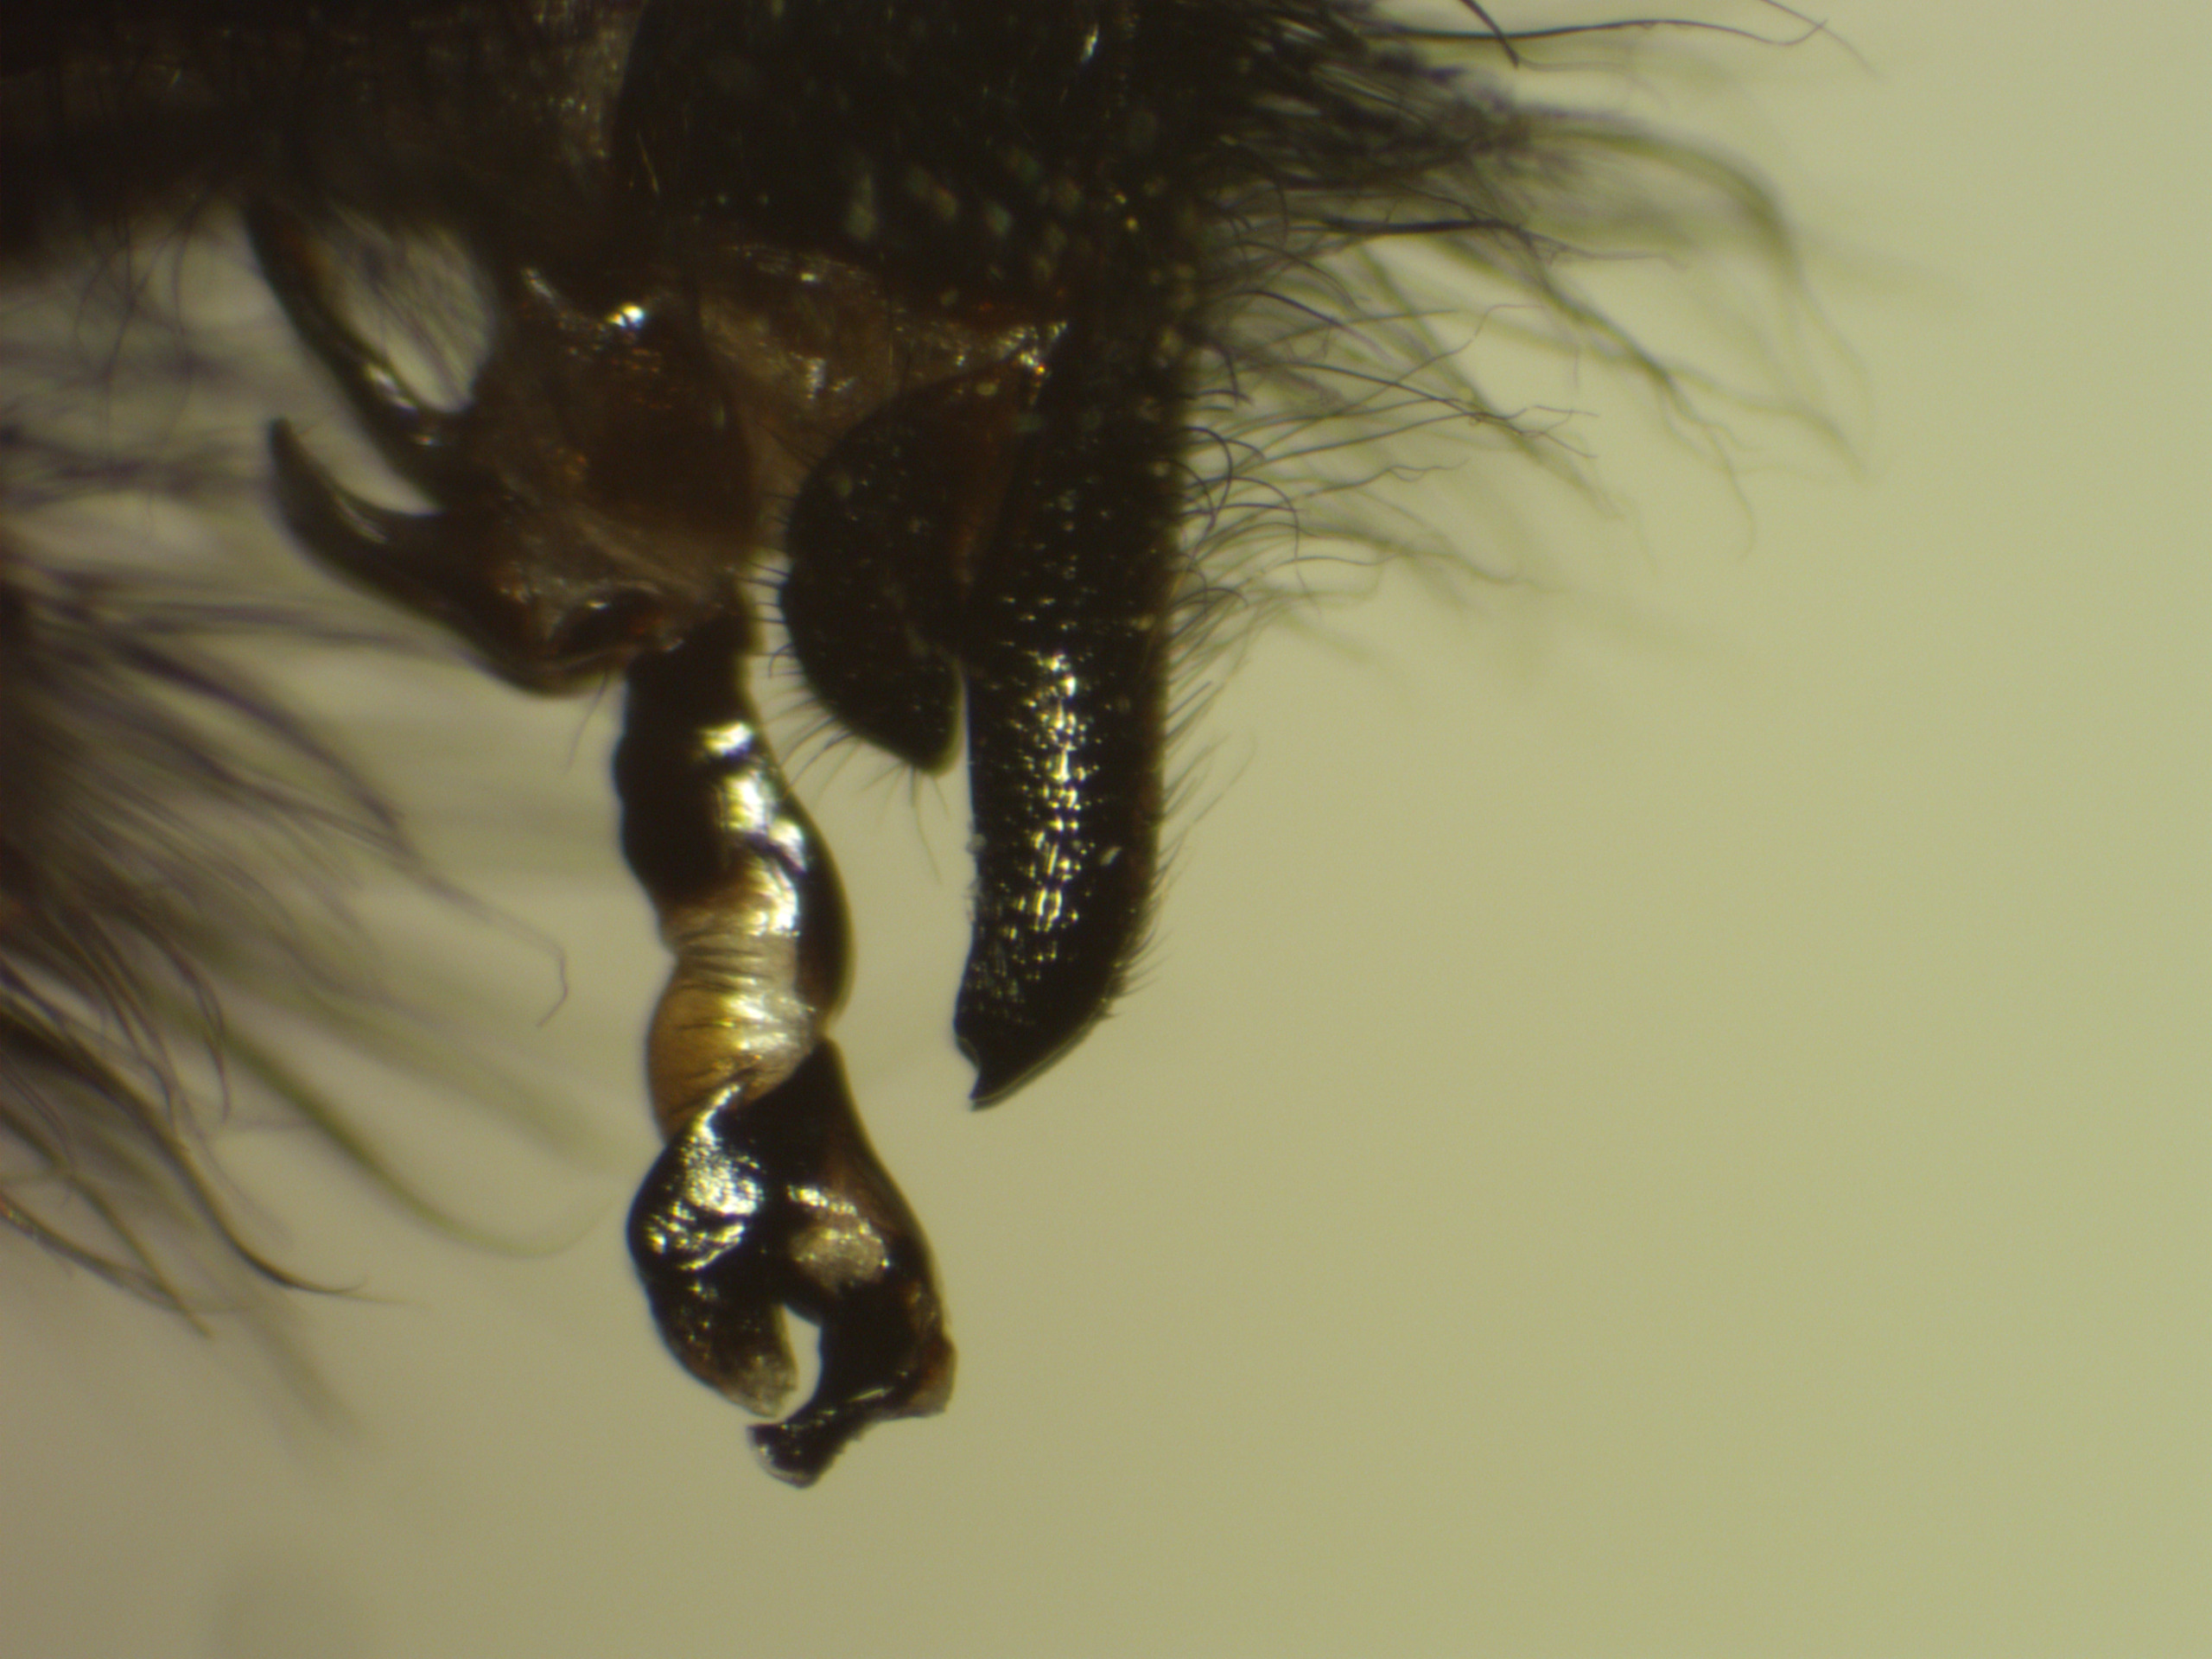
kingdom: Animalia
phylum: Arthropoda
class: Insecta
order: Diptera
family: Sarcophagidae
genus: Sarcophaga
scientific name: Sarcophaga lehmanni
